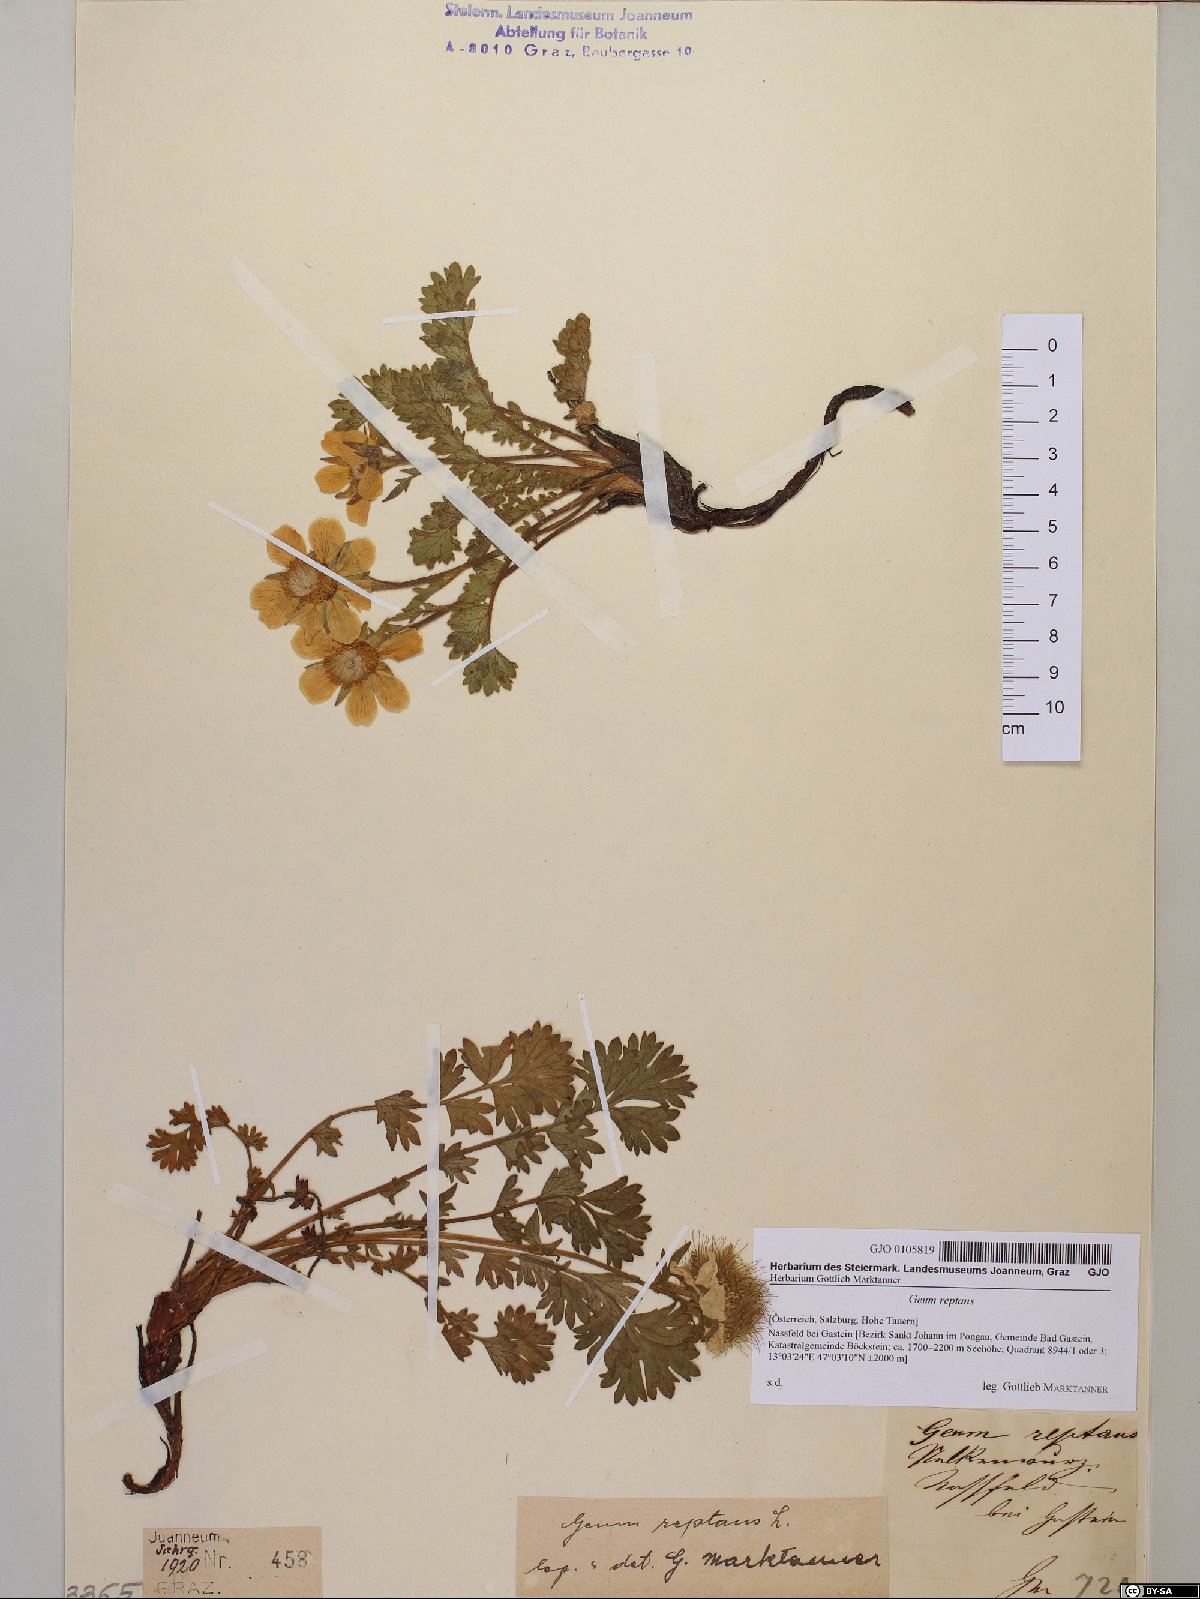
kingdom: Plantae
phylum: Tracheophyta
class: Magnoliopsida
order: Rosales
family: Rosaceae
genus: Geum
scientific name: Geum reptans
